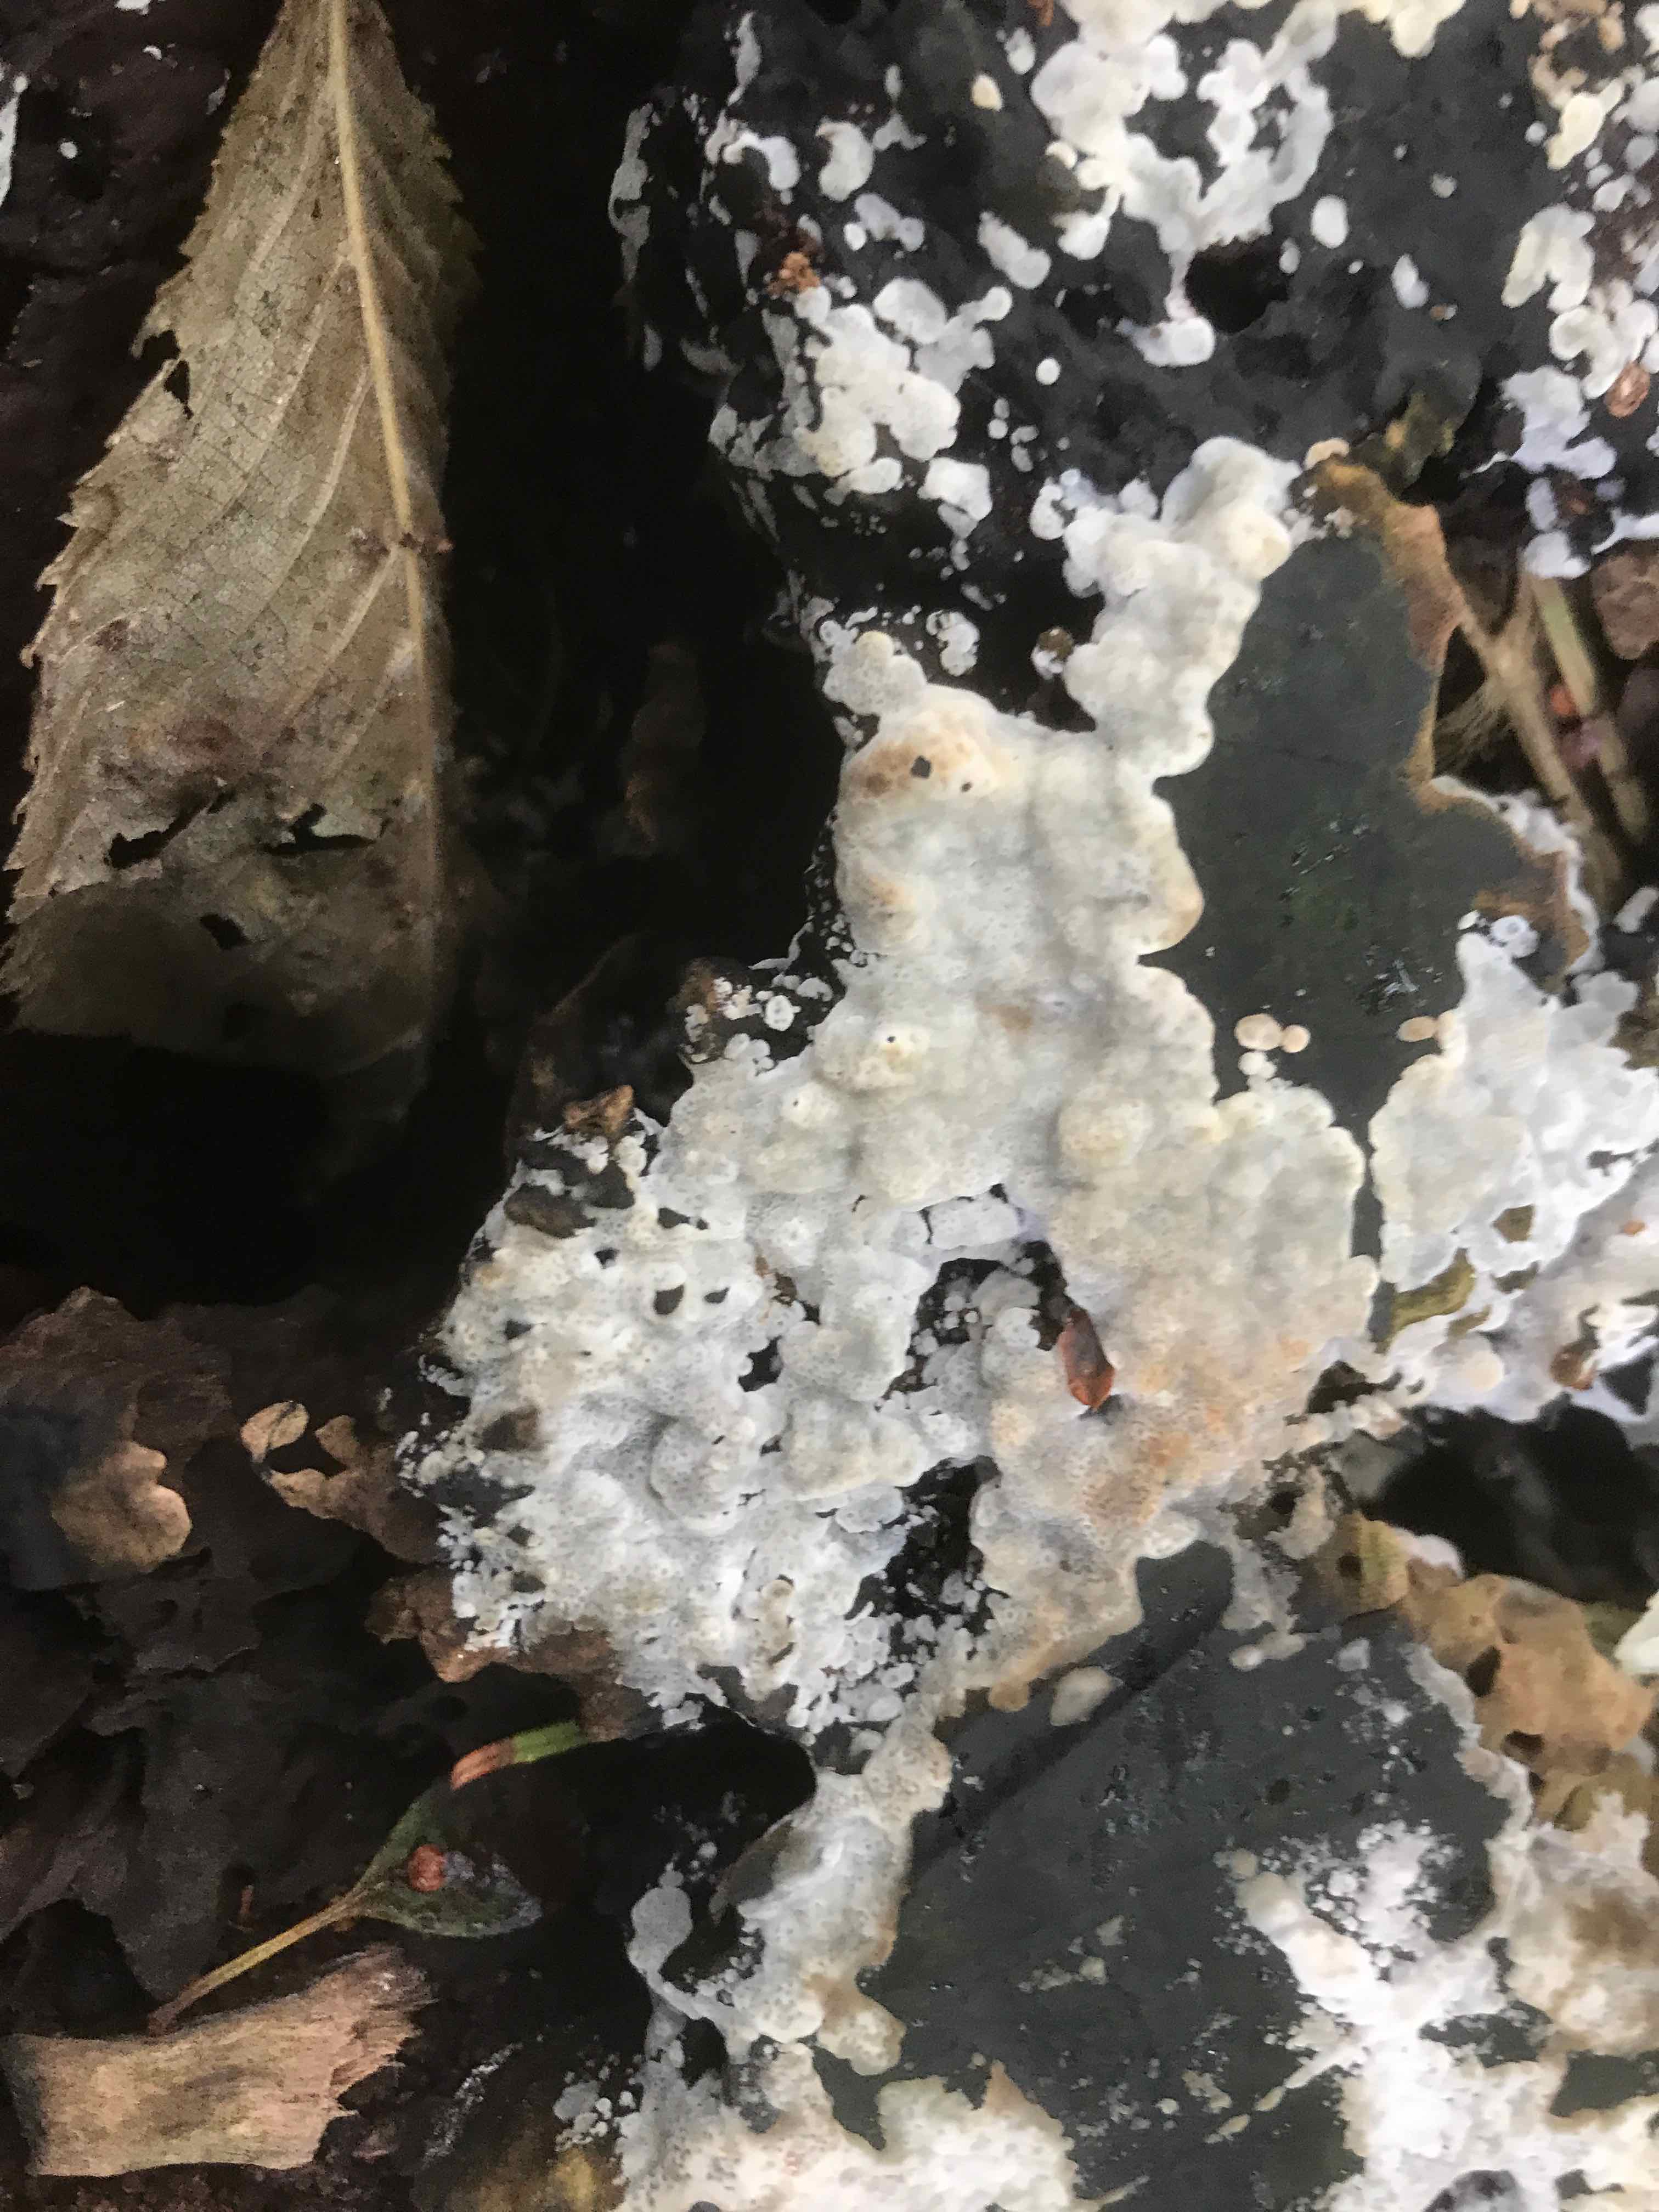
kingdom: Fungi
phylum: Basidiomycota
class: Agaricomycetes
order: Polyporales
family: Meripilaceae
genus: Rigidoporus
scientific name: Rigidoporus sanguinolentus
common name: blod-skorpeporesvamp
